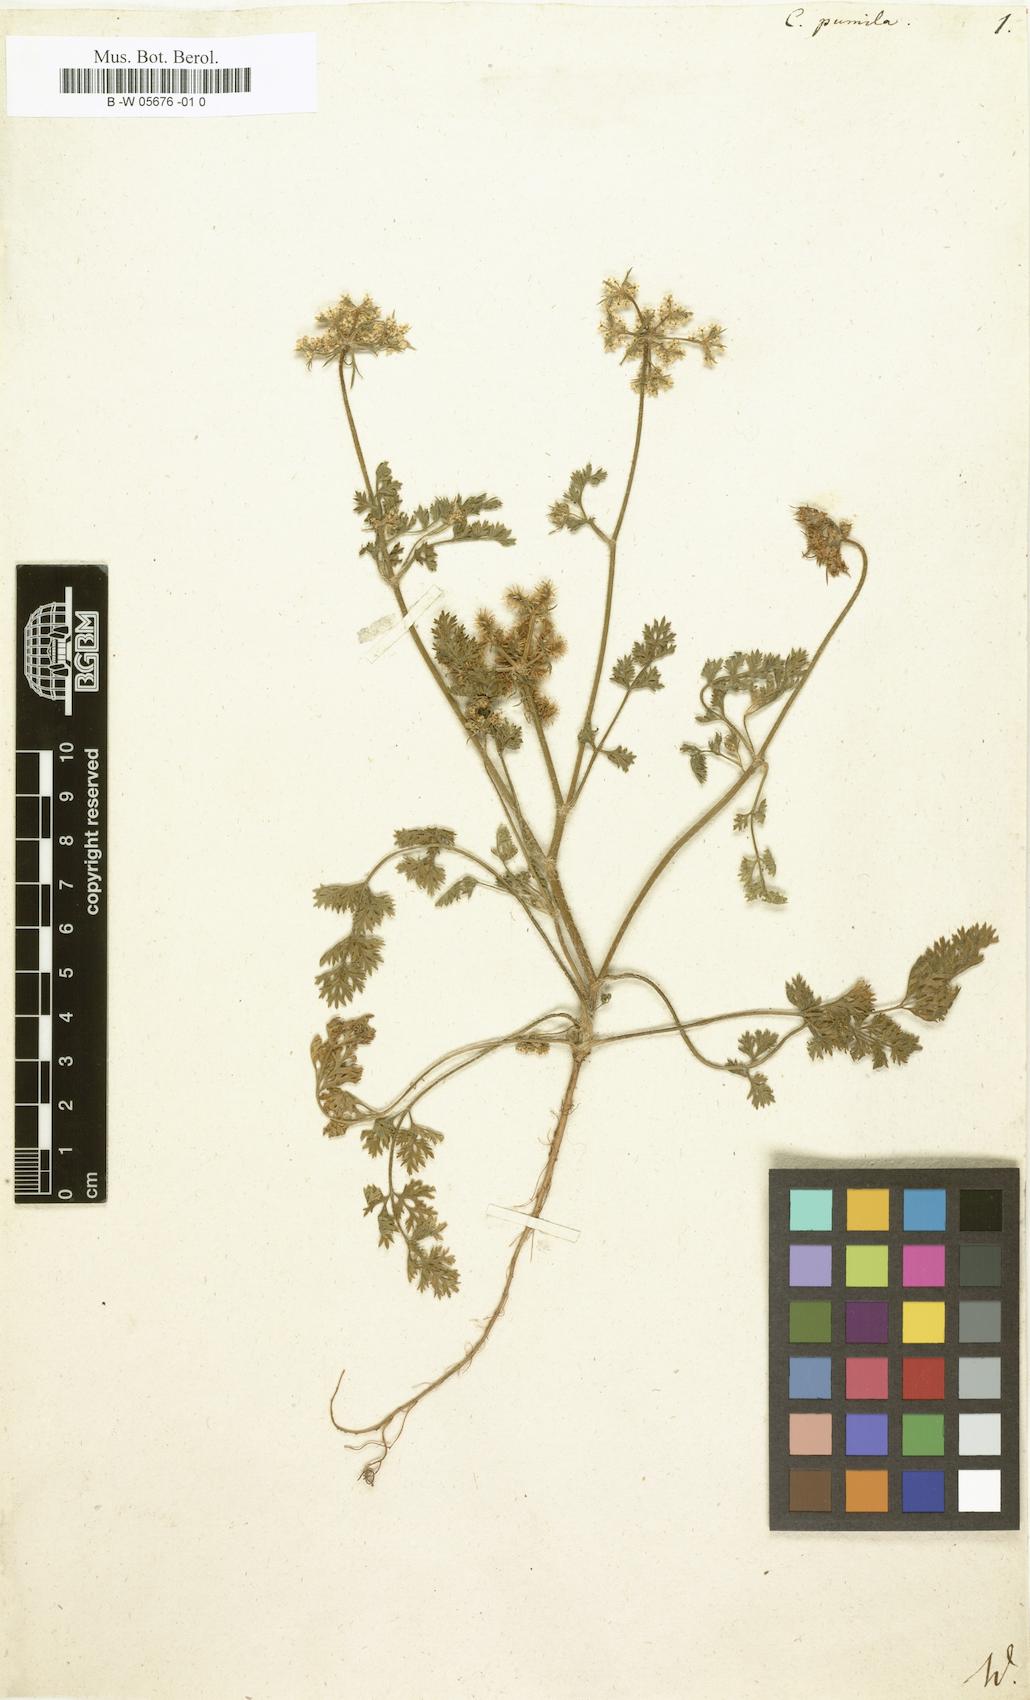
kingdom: Plantae
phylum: Tracheophyta
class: Magnoliopsida
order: Apiales
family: Apiaceae
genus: Caucalis
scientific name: Caucalis pumila
